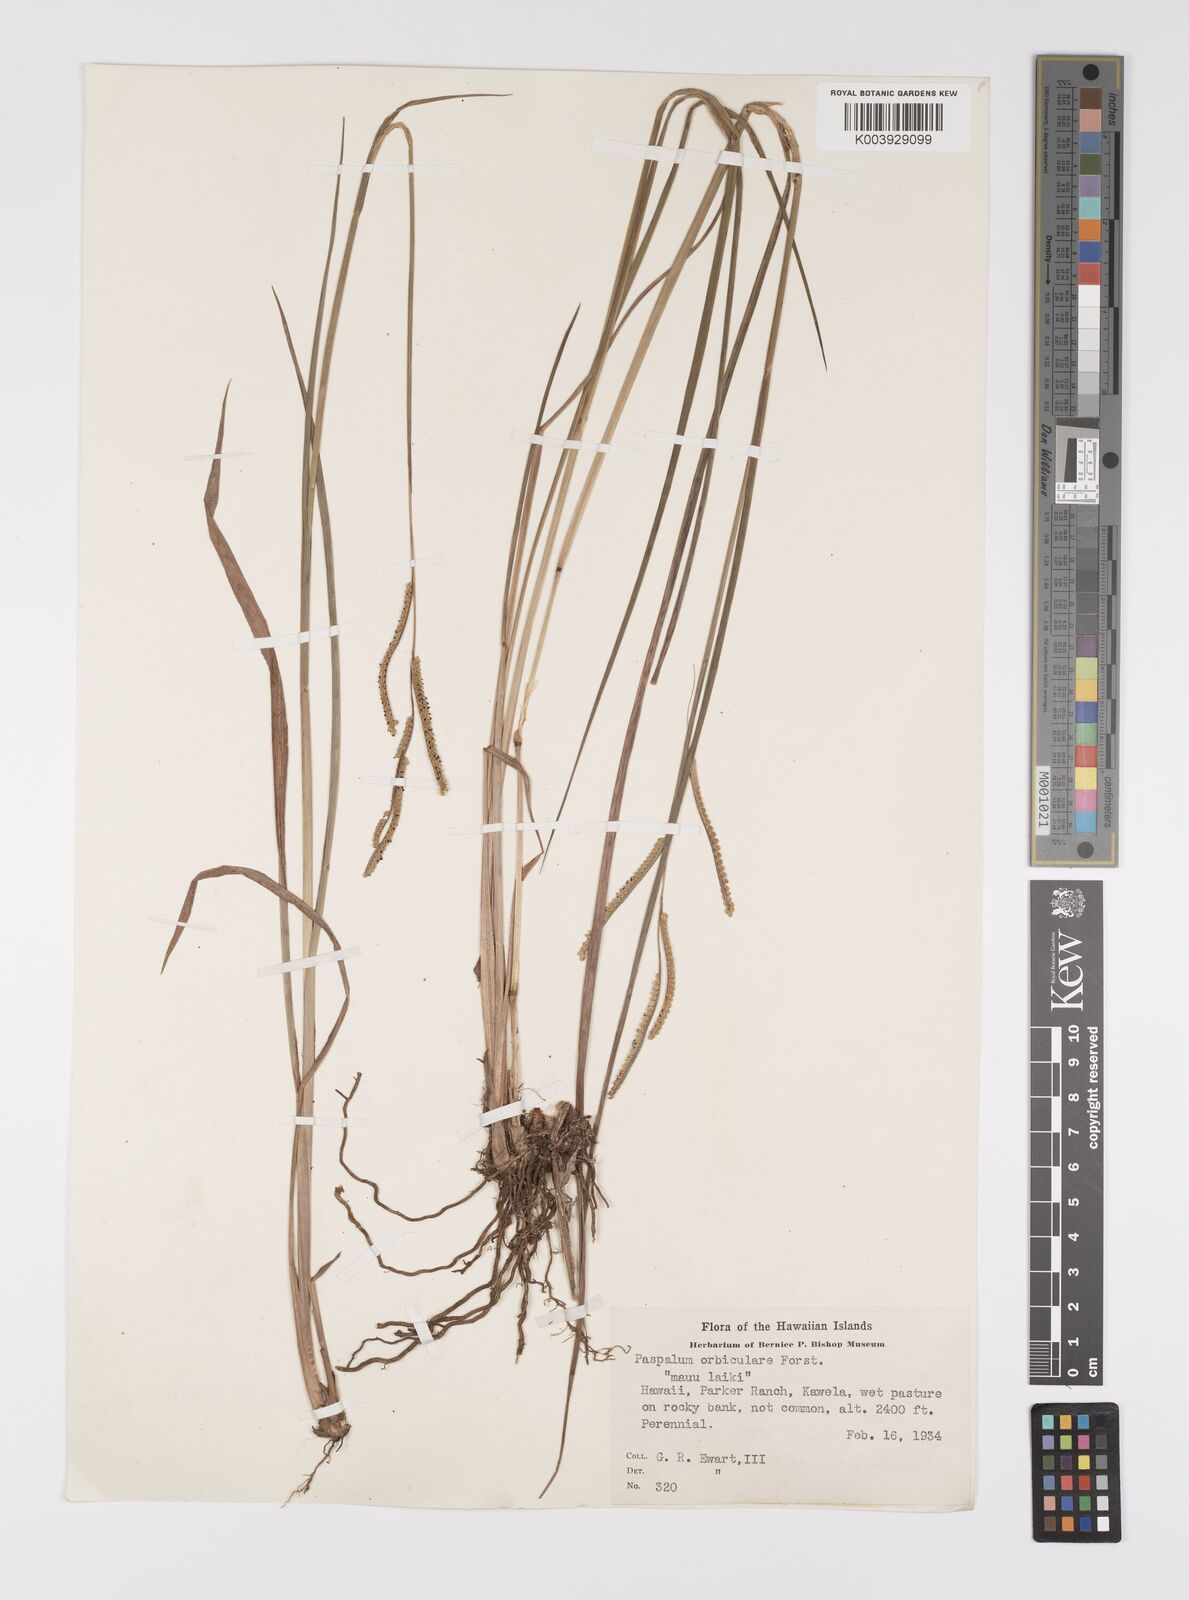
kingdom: Plantae
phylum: Tracheophyta
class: Liliopsida
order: Poales
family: Poaceae
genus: Paspalum
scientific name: Paspalum scrobiculatum
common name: Kodo millet
